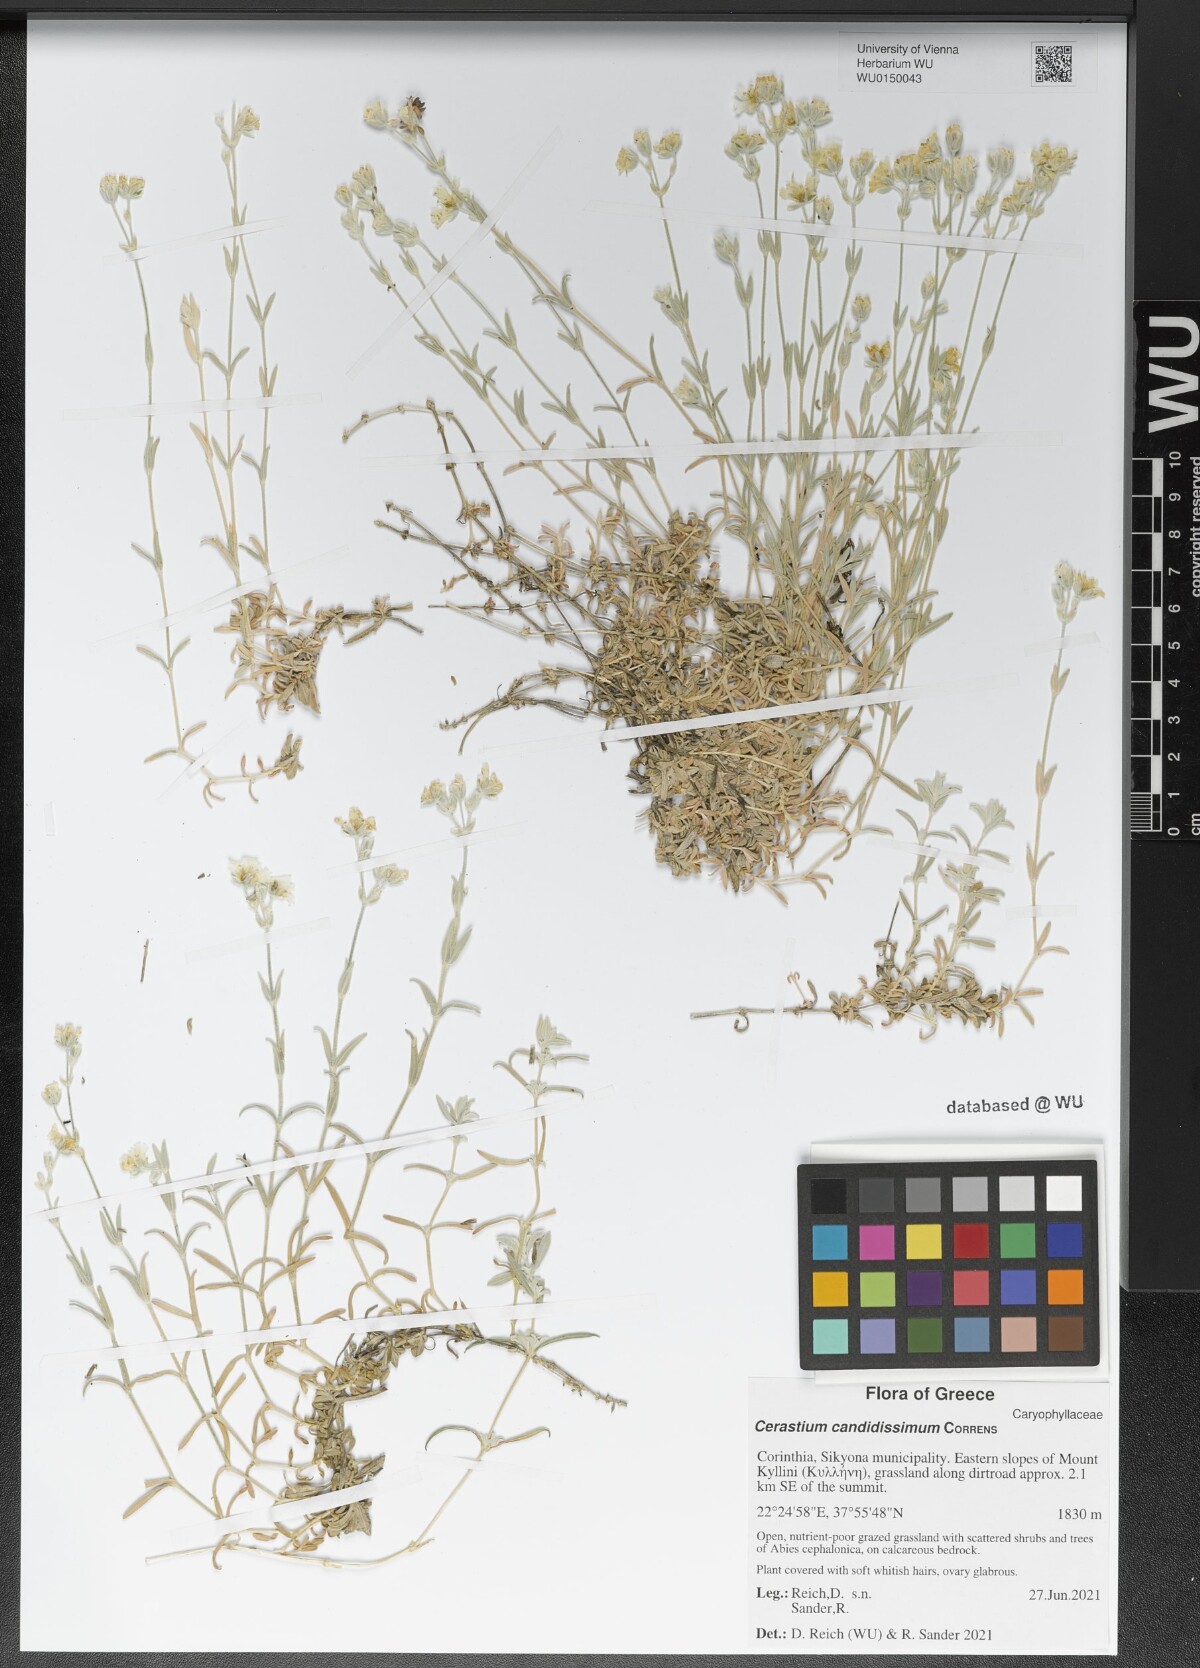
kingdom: Plantae
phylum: Tracheophyta
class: Magnoliopsida
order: Caryophyllales
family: Caryophyllaceae
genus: Cerastium
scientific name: Cerastium candidissimum
